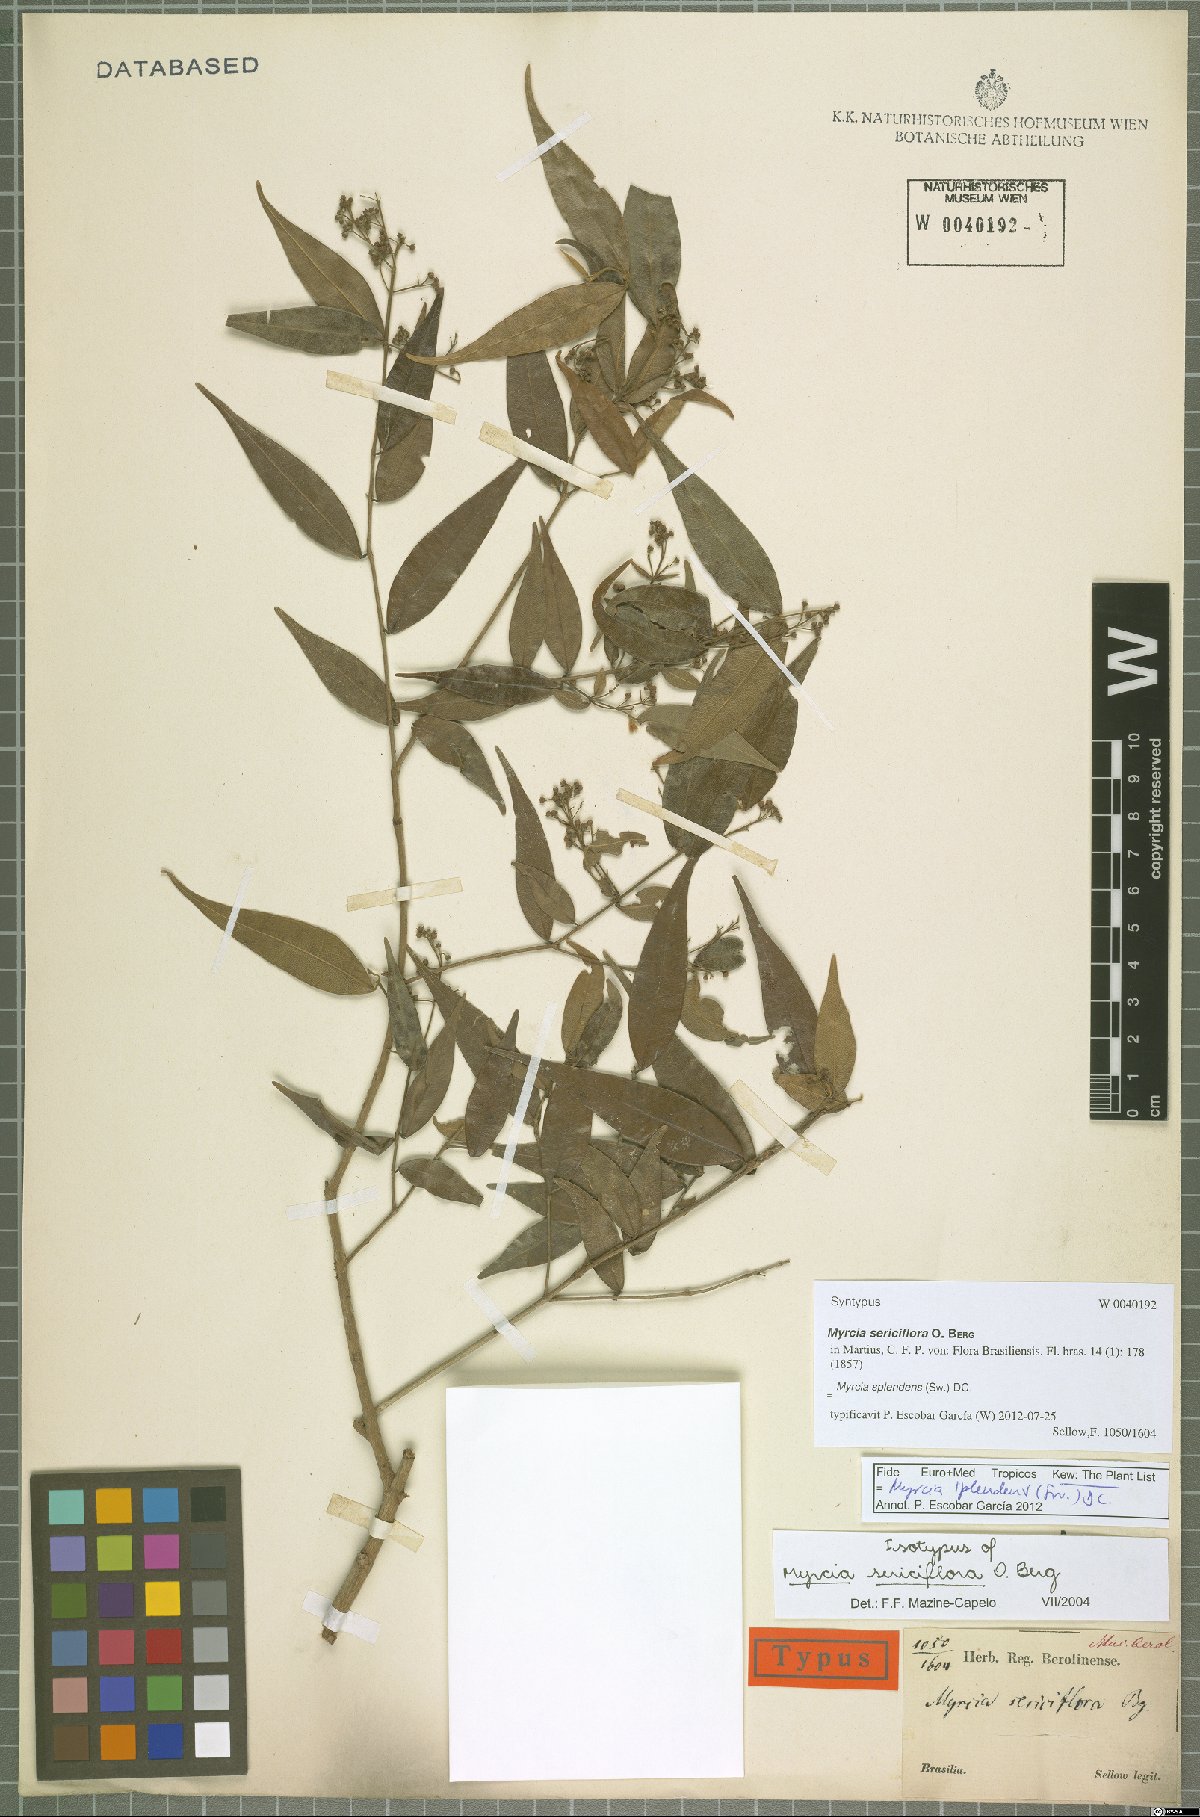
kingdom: Plantae
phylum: Tracheophyta
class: Magnoliopsida
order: Myrtales
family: Myrtaceae
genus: Myrcia
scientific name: Myrcia splendens
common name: Surinam cherry
